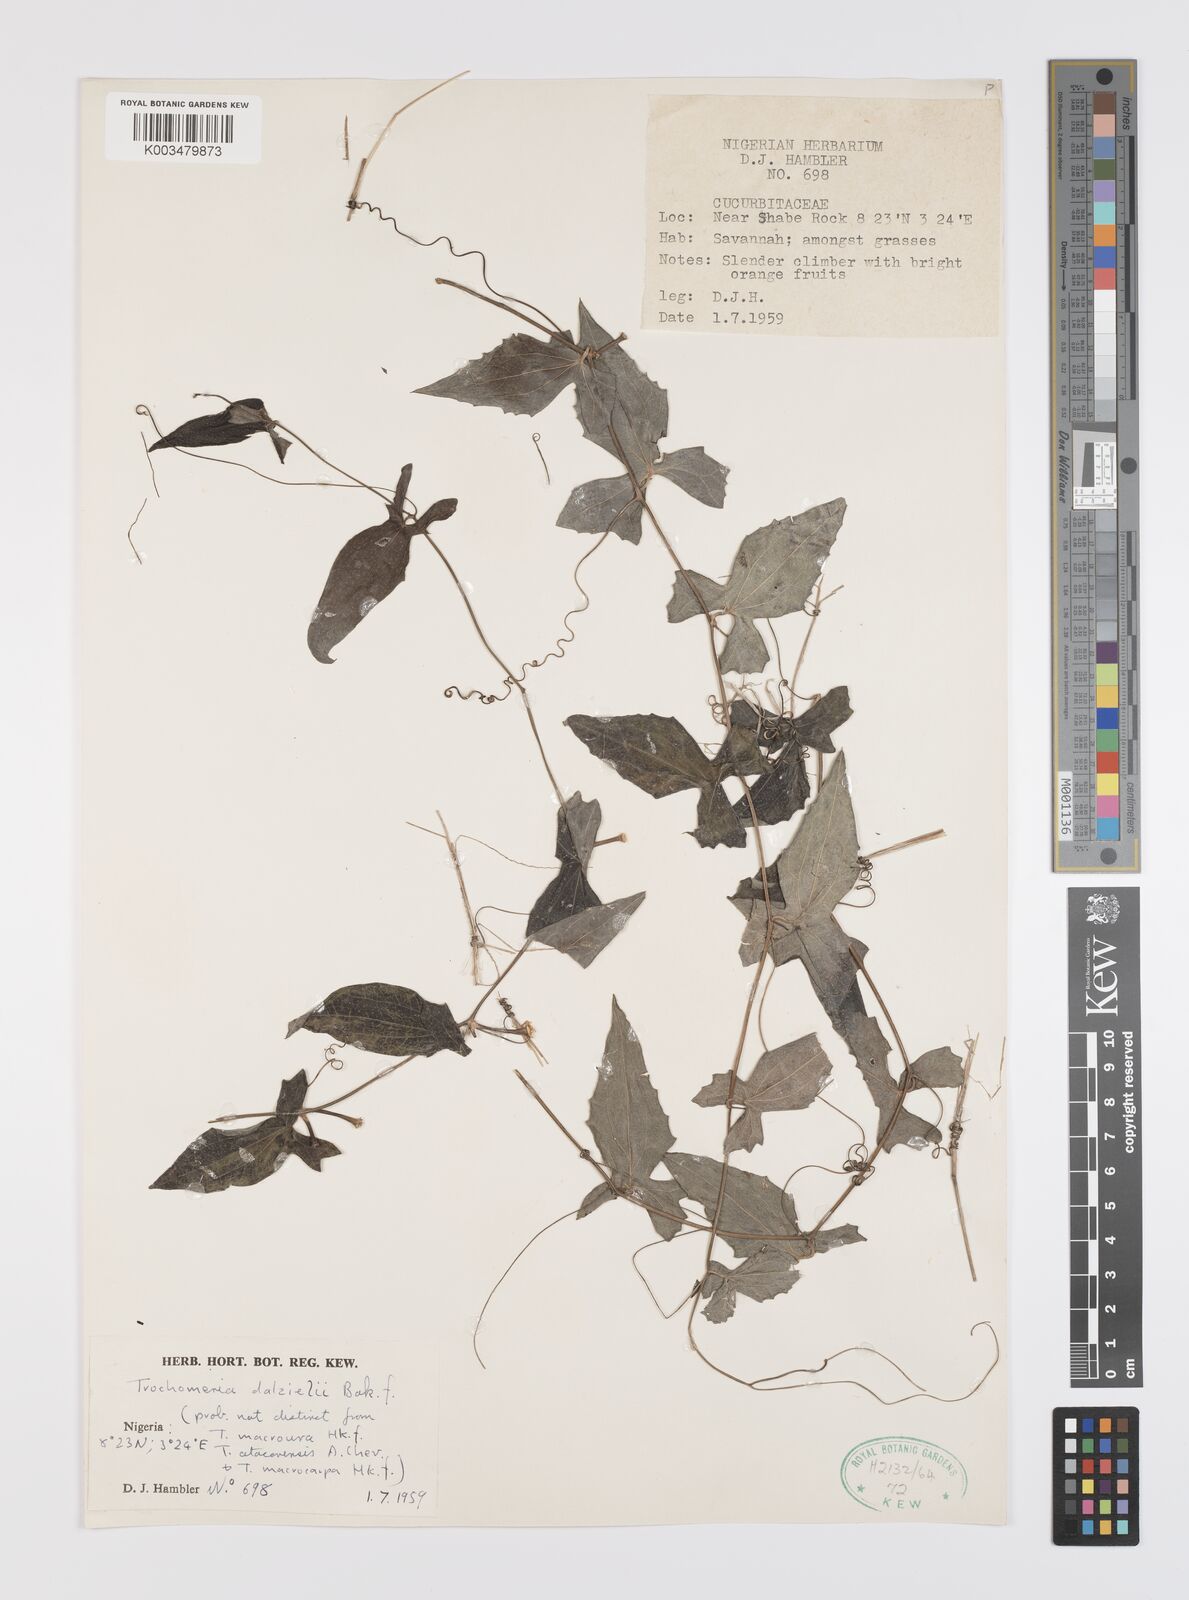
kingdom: Plantae
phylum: Tracheophyta
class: Magnoliopsida
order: Cucurbitales
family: Cucurbitaceae
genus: Trochomeria
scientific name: Trochomeria macrocarpa
